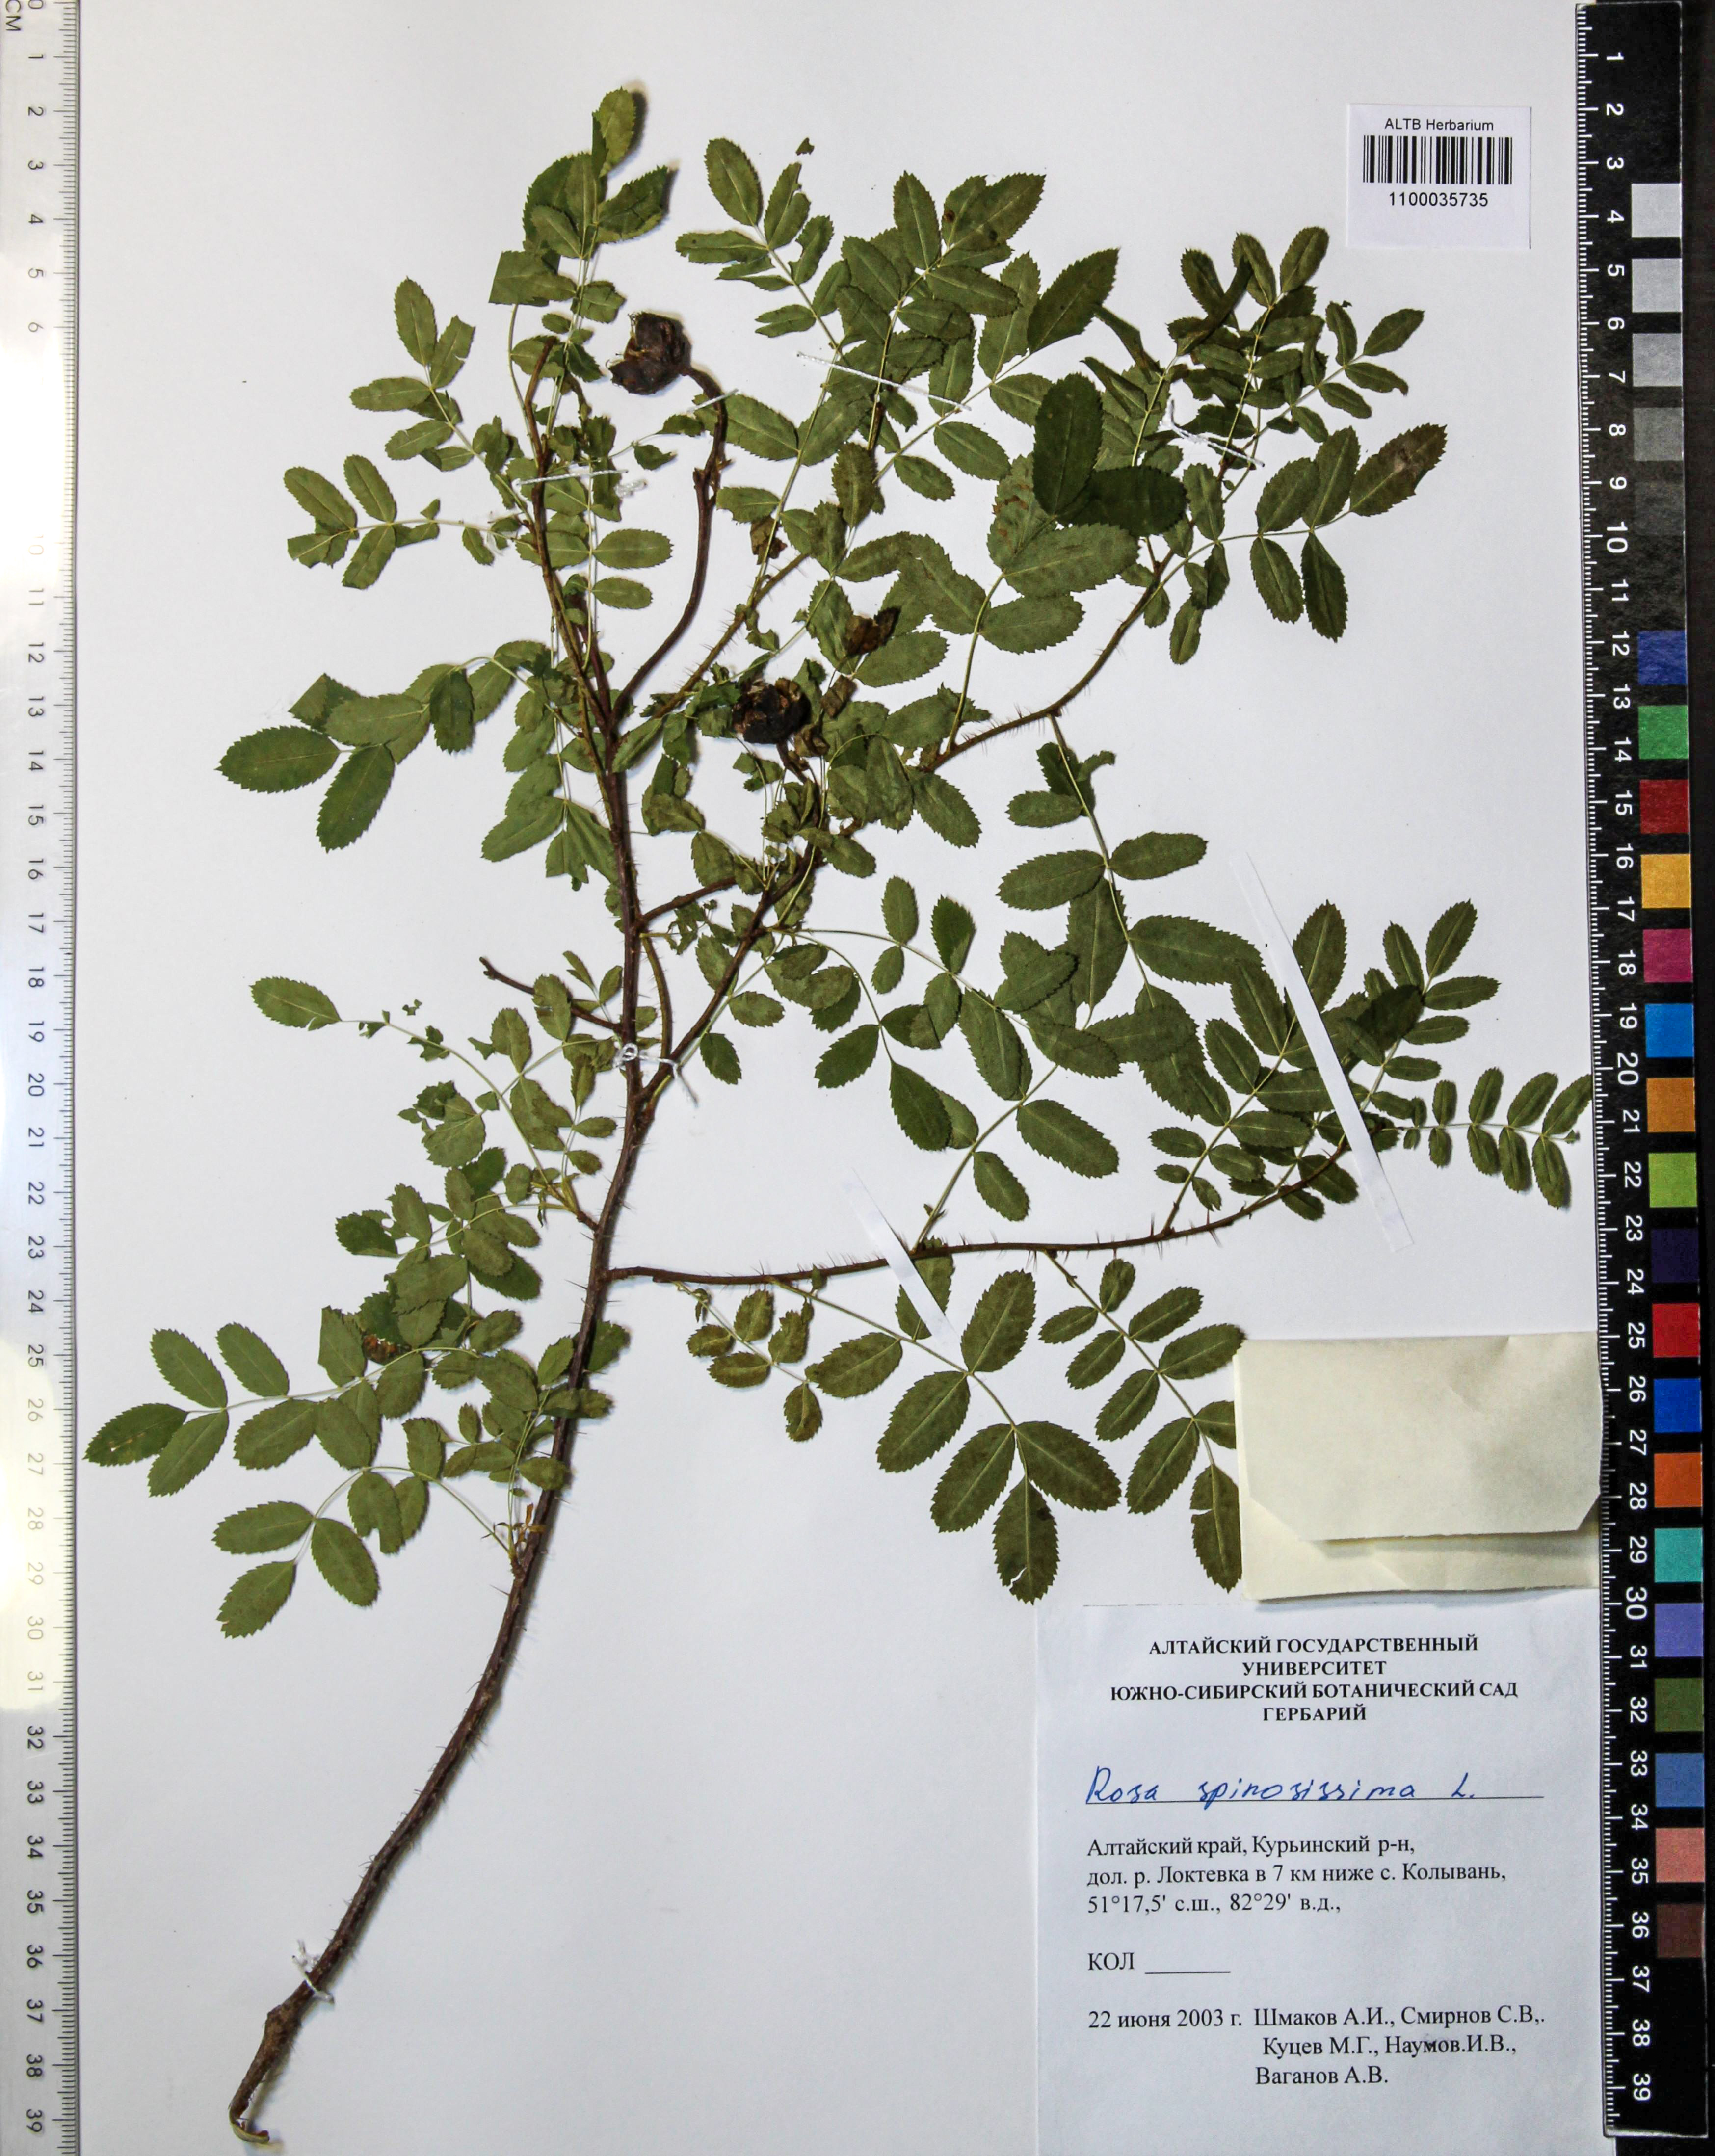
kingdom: Plantae
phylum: Tracheophyta
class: Magnoliopsida
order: Rosales
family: Rosaceae
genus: Rosa
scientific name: Rosa spinosissima
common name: Burnet rose
